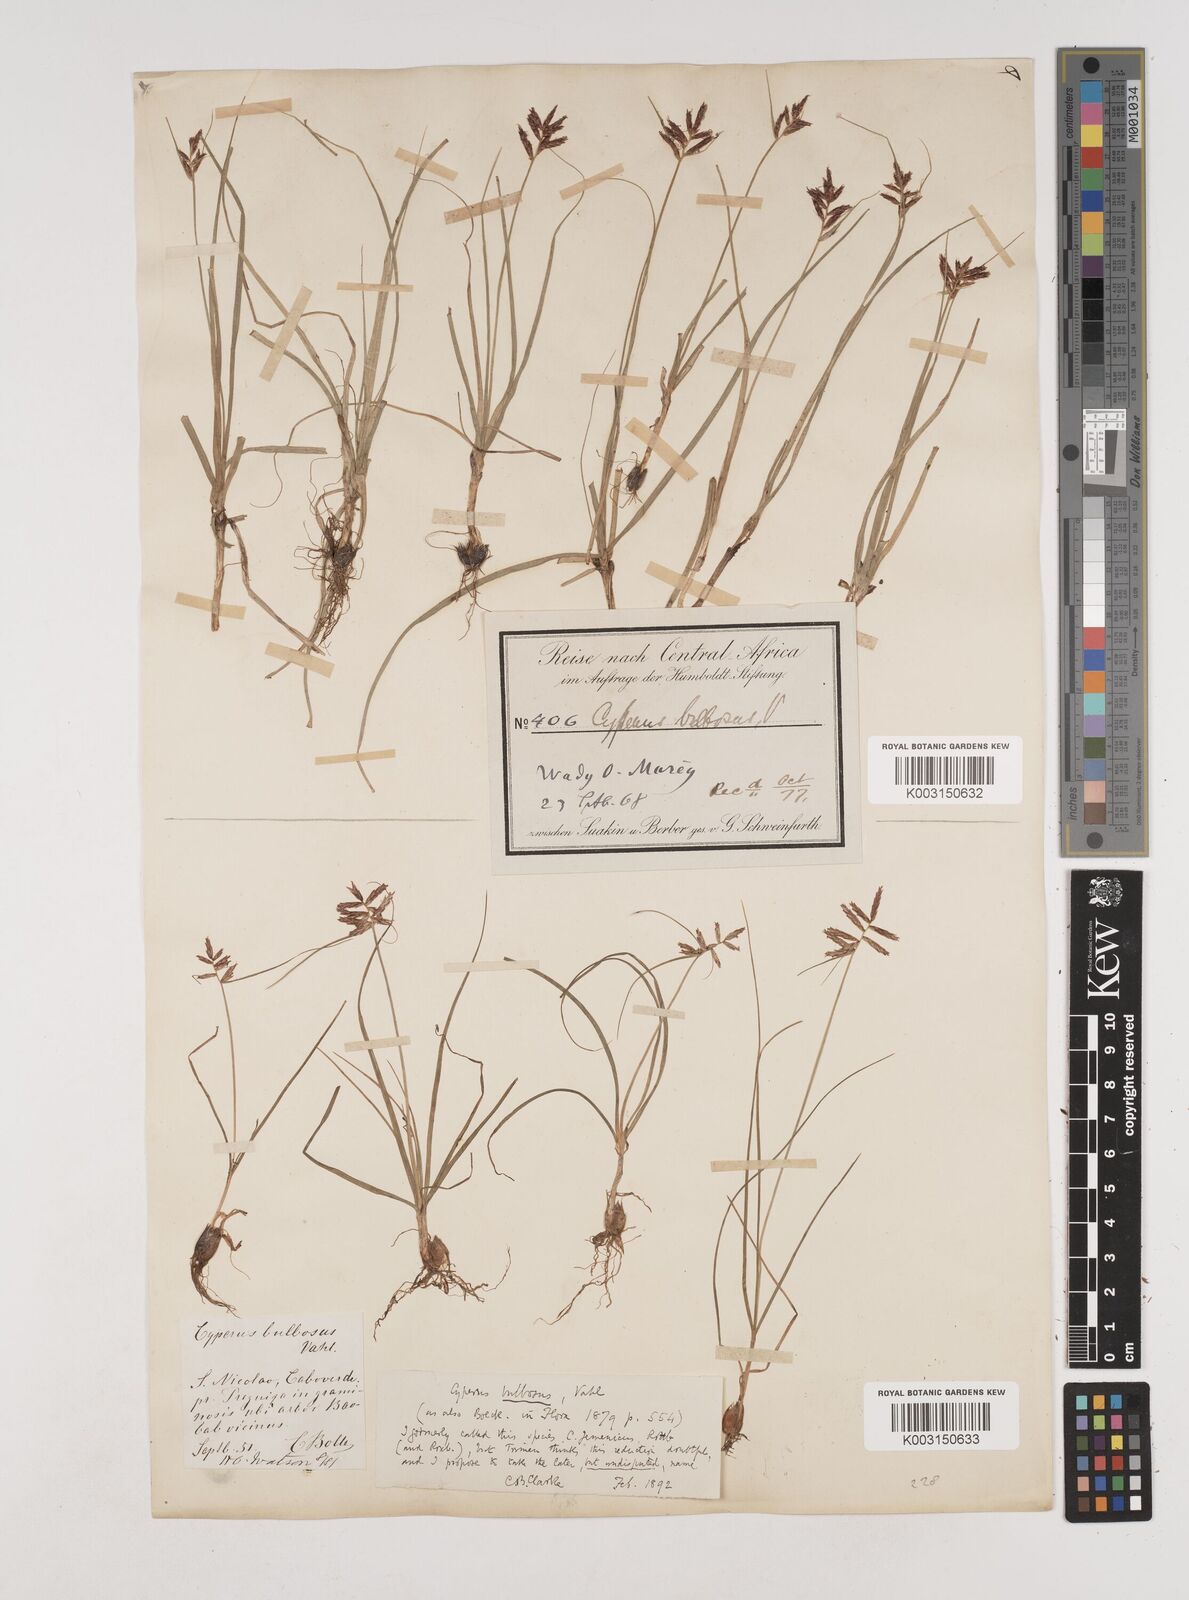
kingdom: Plantae
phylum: Tracheophyta
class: Liliopsida
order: Poales
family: Cyperaceae
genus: Cyperus
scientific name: Cyperus bulbosus
